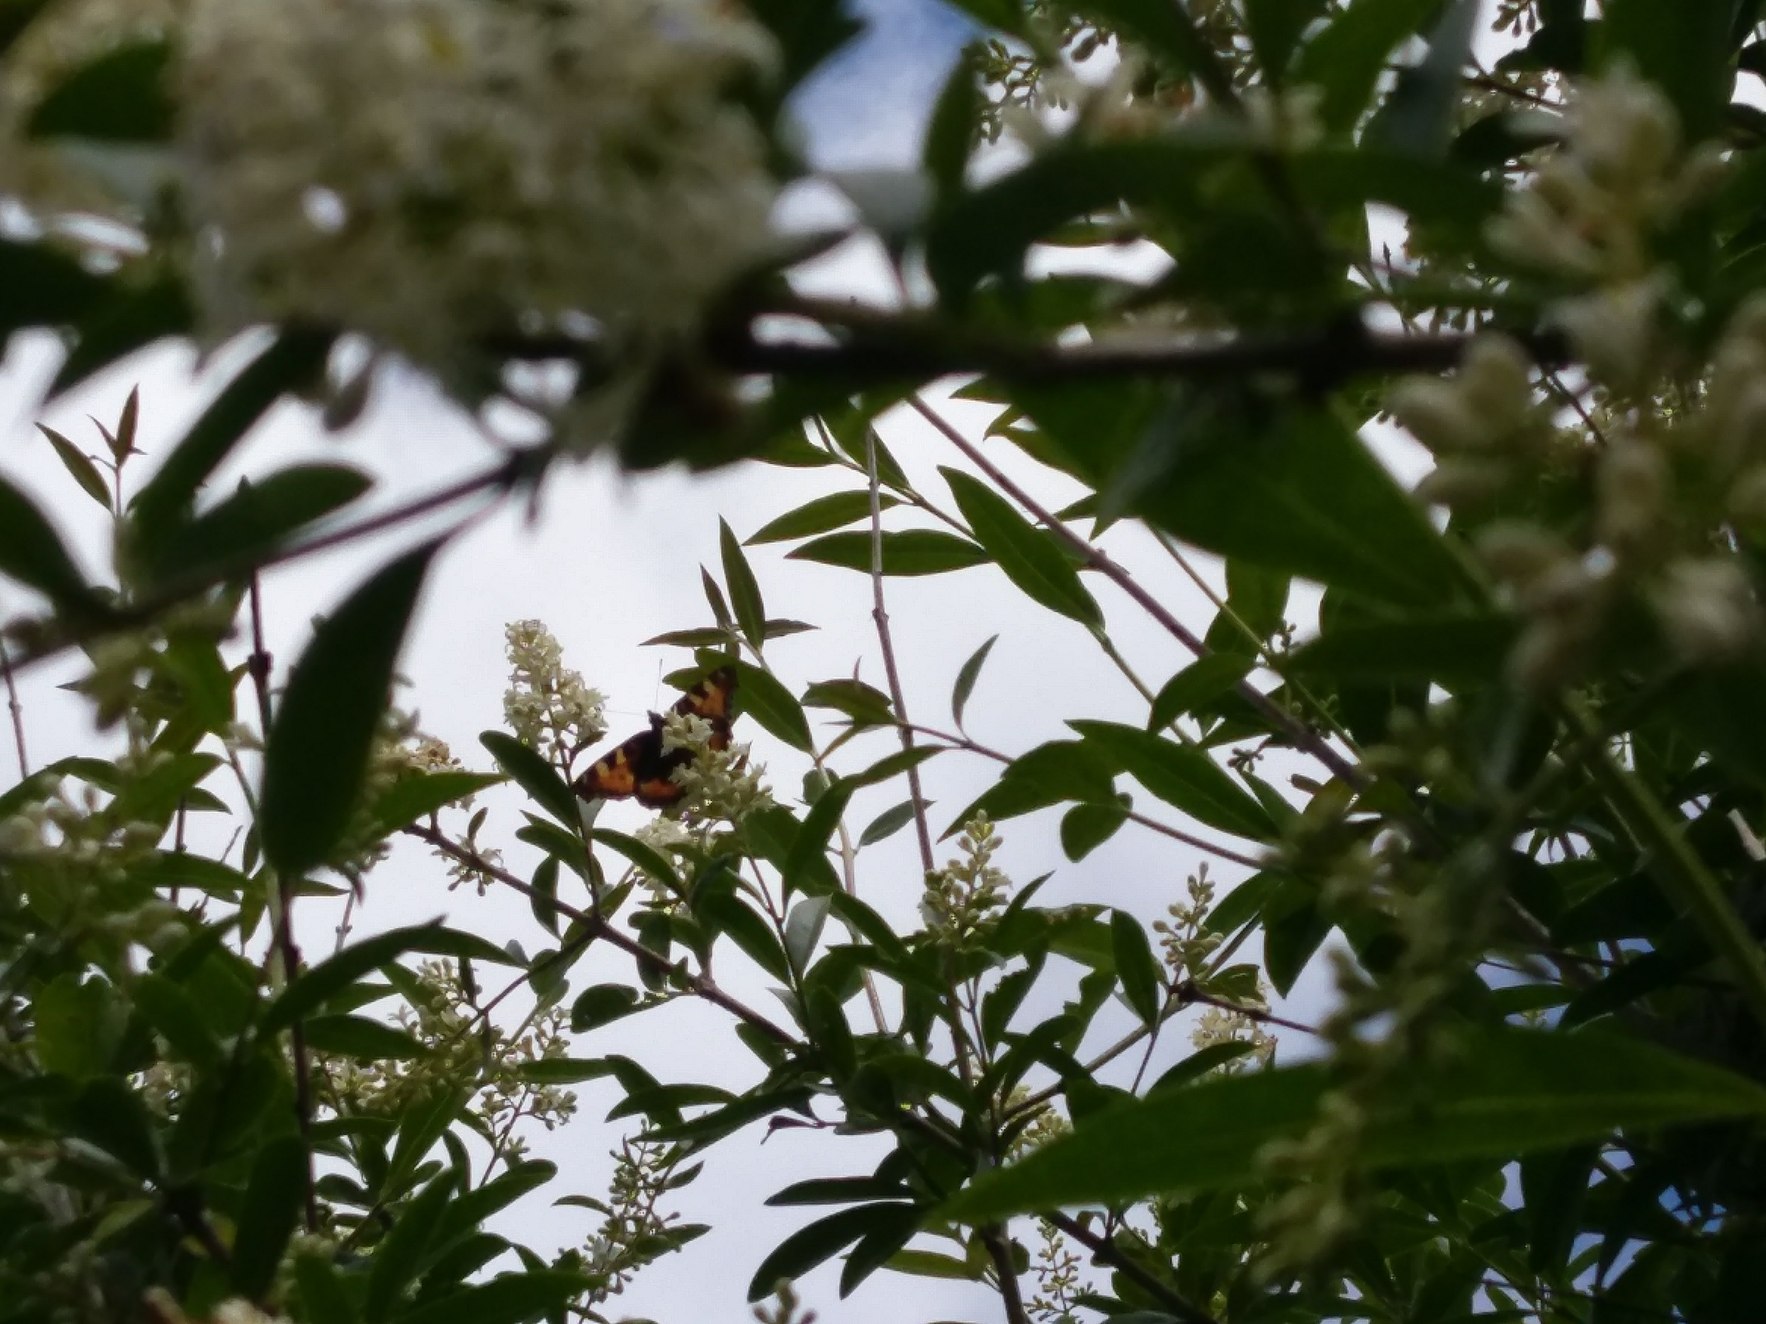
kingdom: Animalia
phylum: Arthropoda
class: Insecta
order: Lepidoptera
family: Nymphalidae
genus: Aglais
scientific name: Aglais urticae
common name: Nældens takvinge
